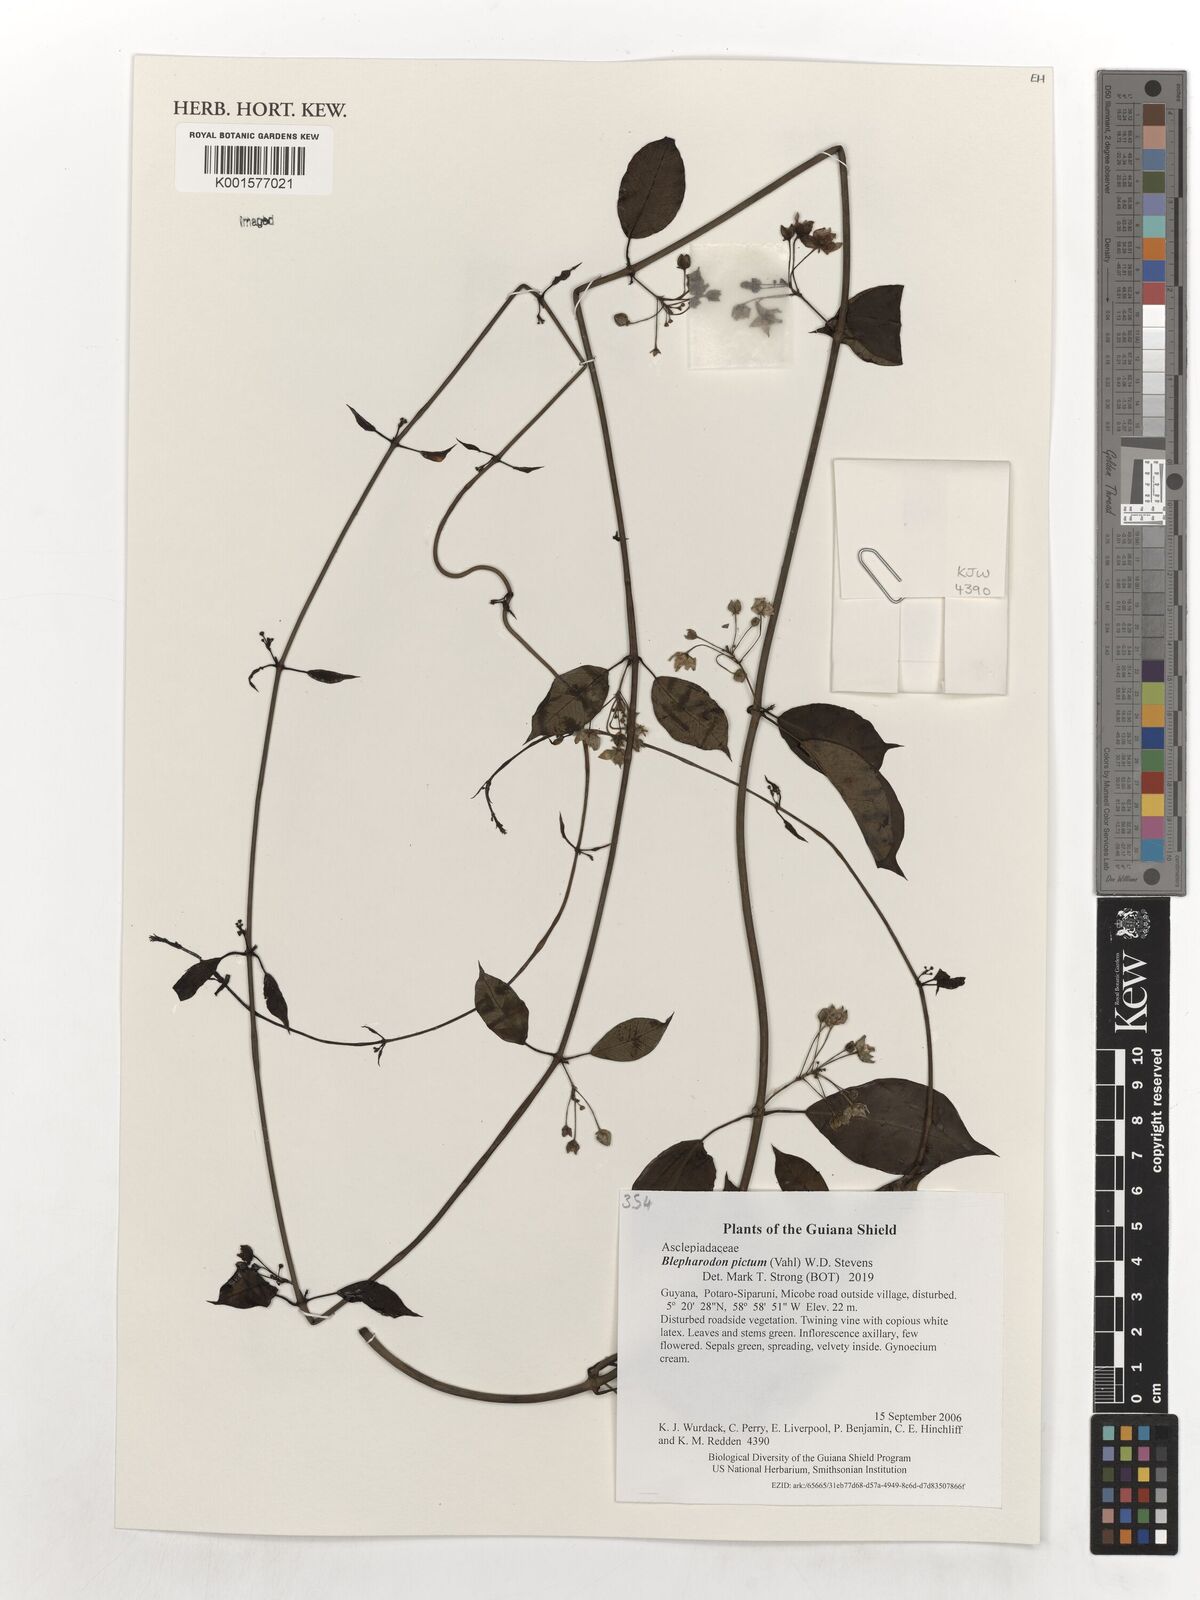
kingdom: Plantae
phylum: Tracheophyta
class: Magnoliopsida
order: Gentianales
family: Apocynaceae
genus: Blepharodon
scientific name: Blepharodon pictum
